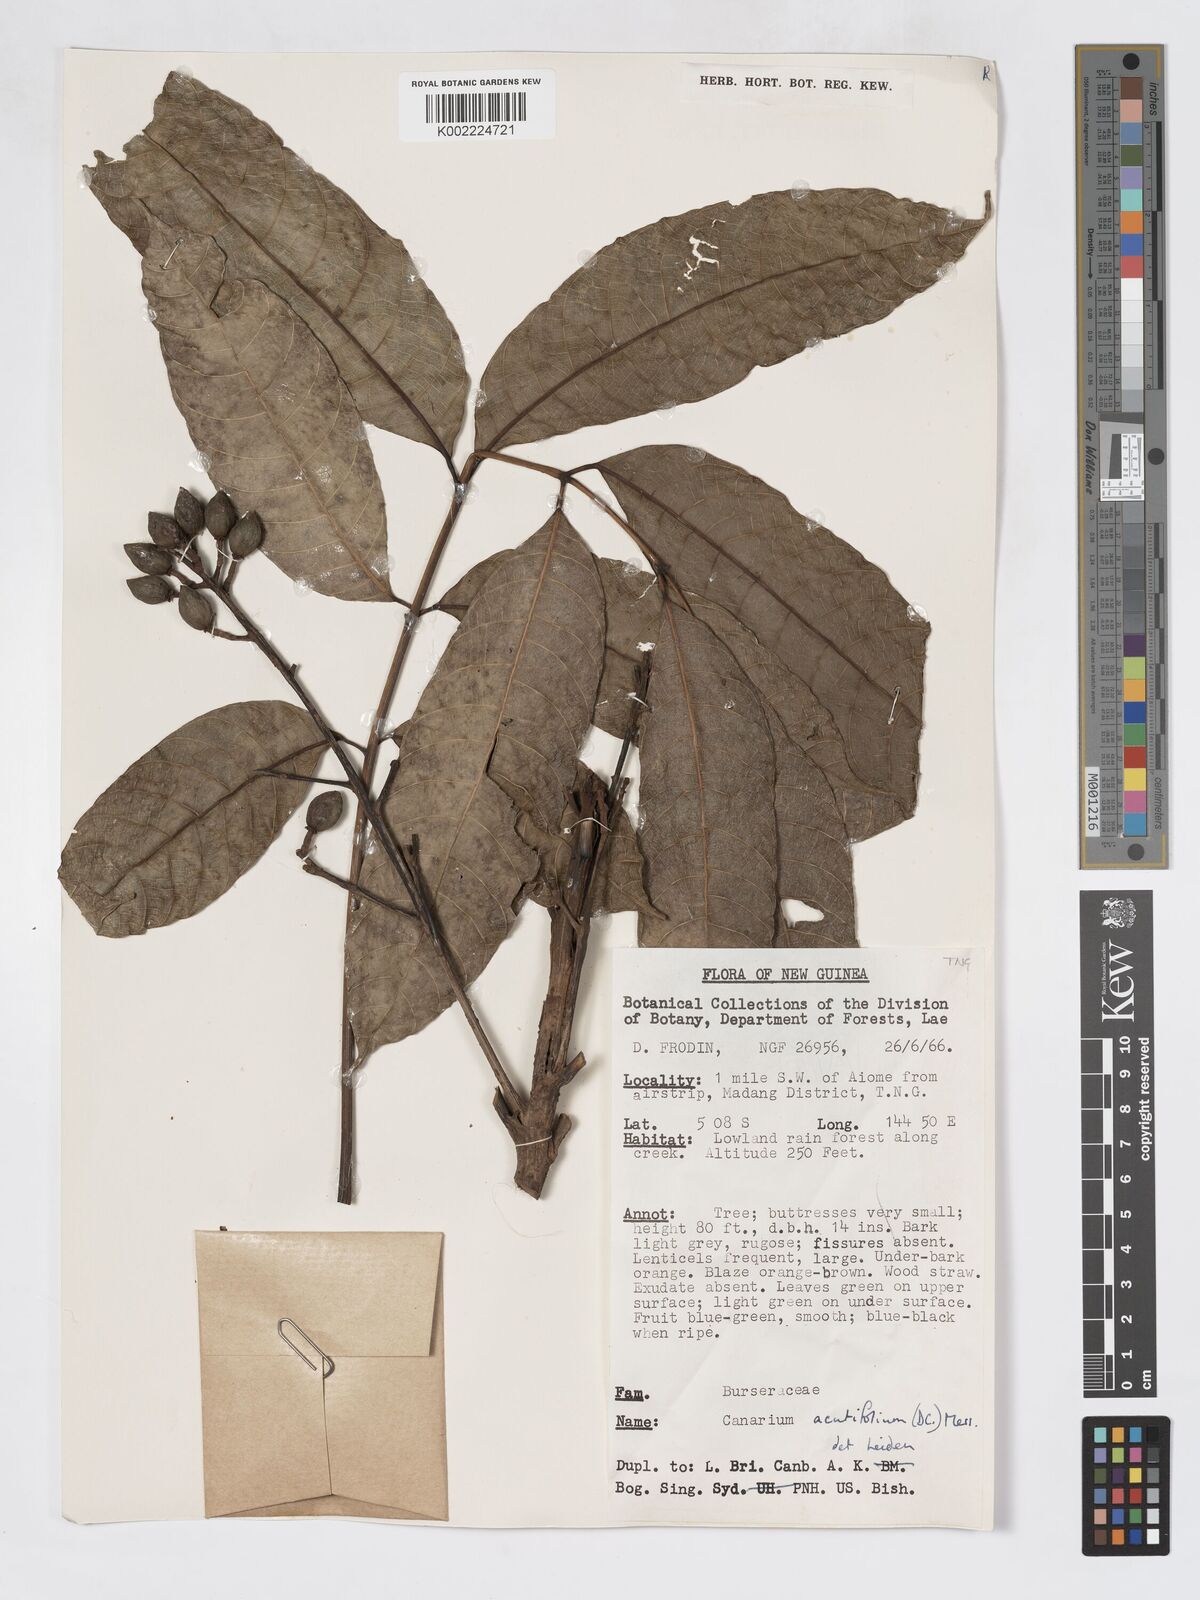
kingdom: Plantae
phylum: Tracheophyta
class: Magnoliopsida
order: Sapindales
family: Burseraceae
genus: Canarium
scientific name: Canarium acutifolium
